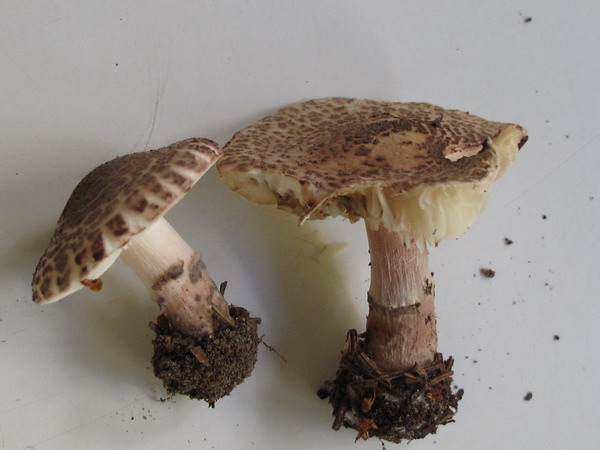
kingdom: Fungi
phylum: Basidiomycota
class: Agaricomycetes
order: Agaricales
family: Agaricaceae
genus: Lepiota
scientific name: Lepiota brunneoincarnata
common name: brunrød parasolhat
